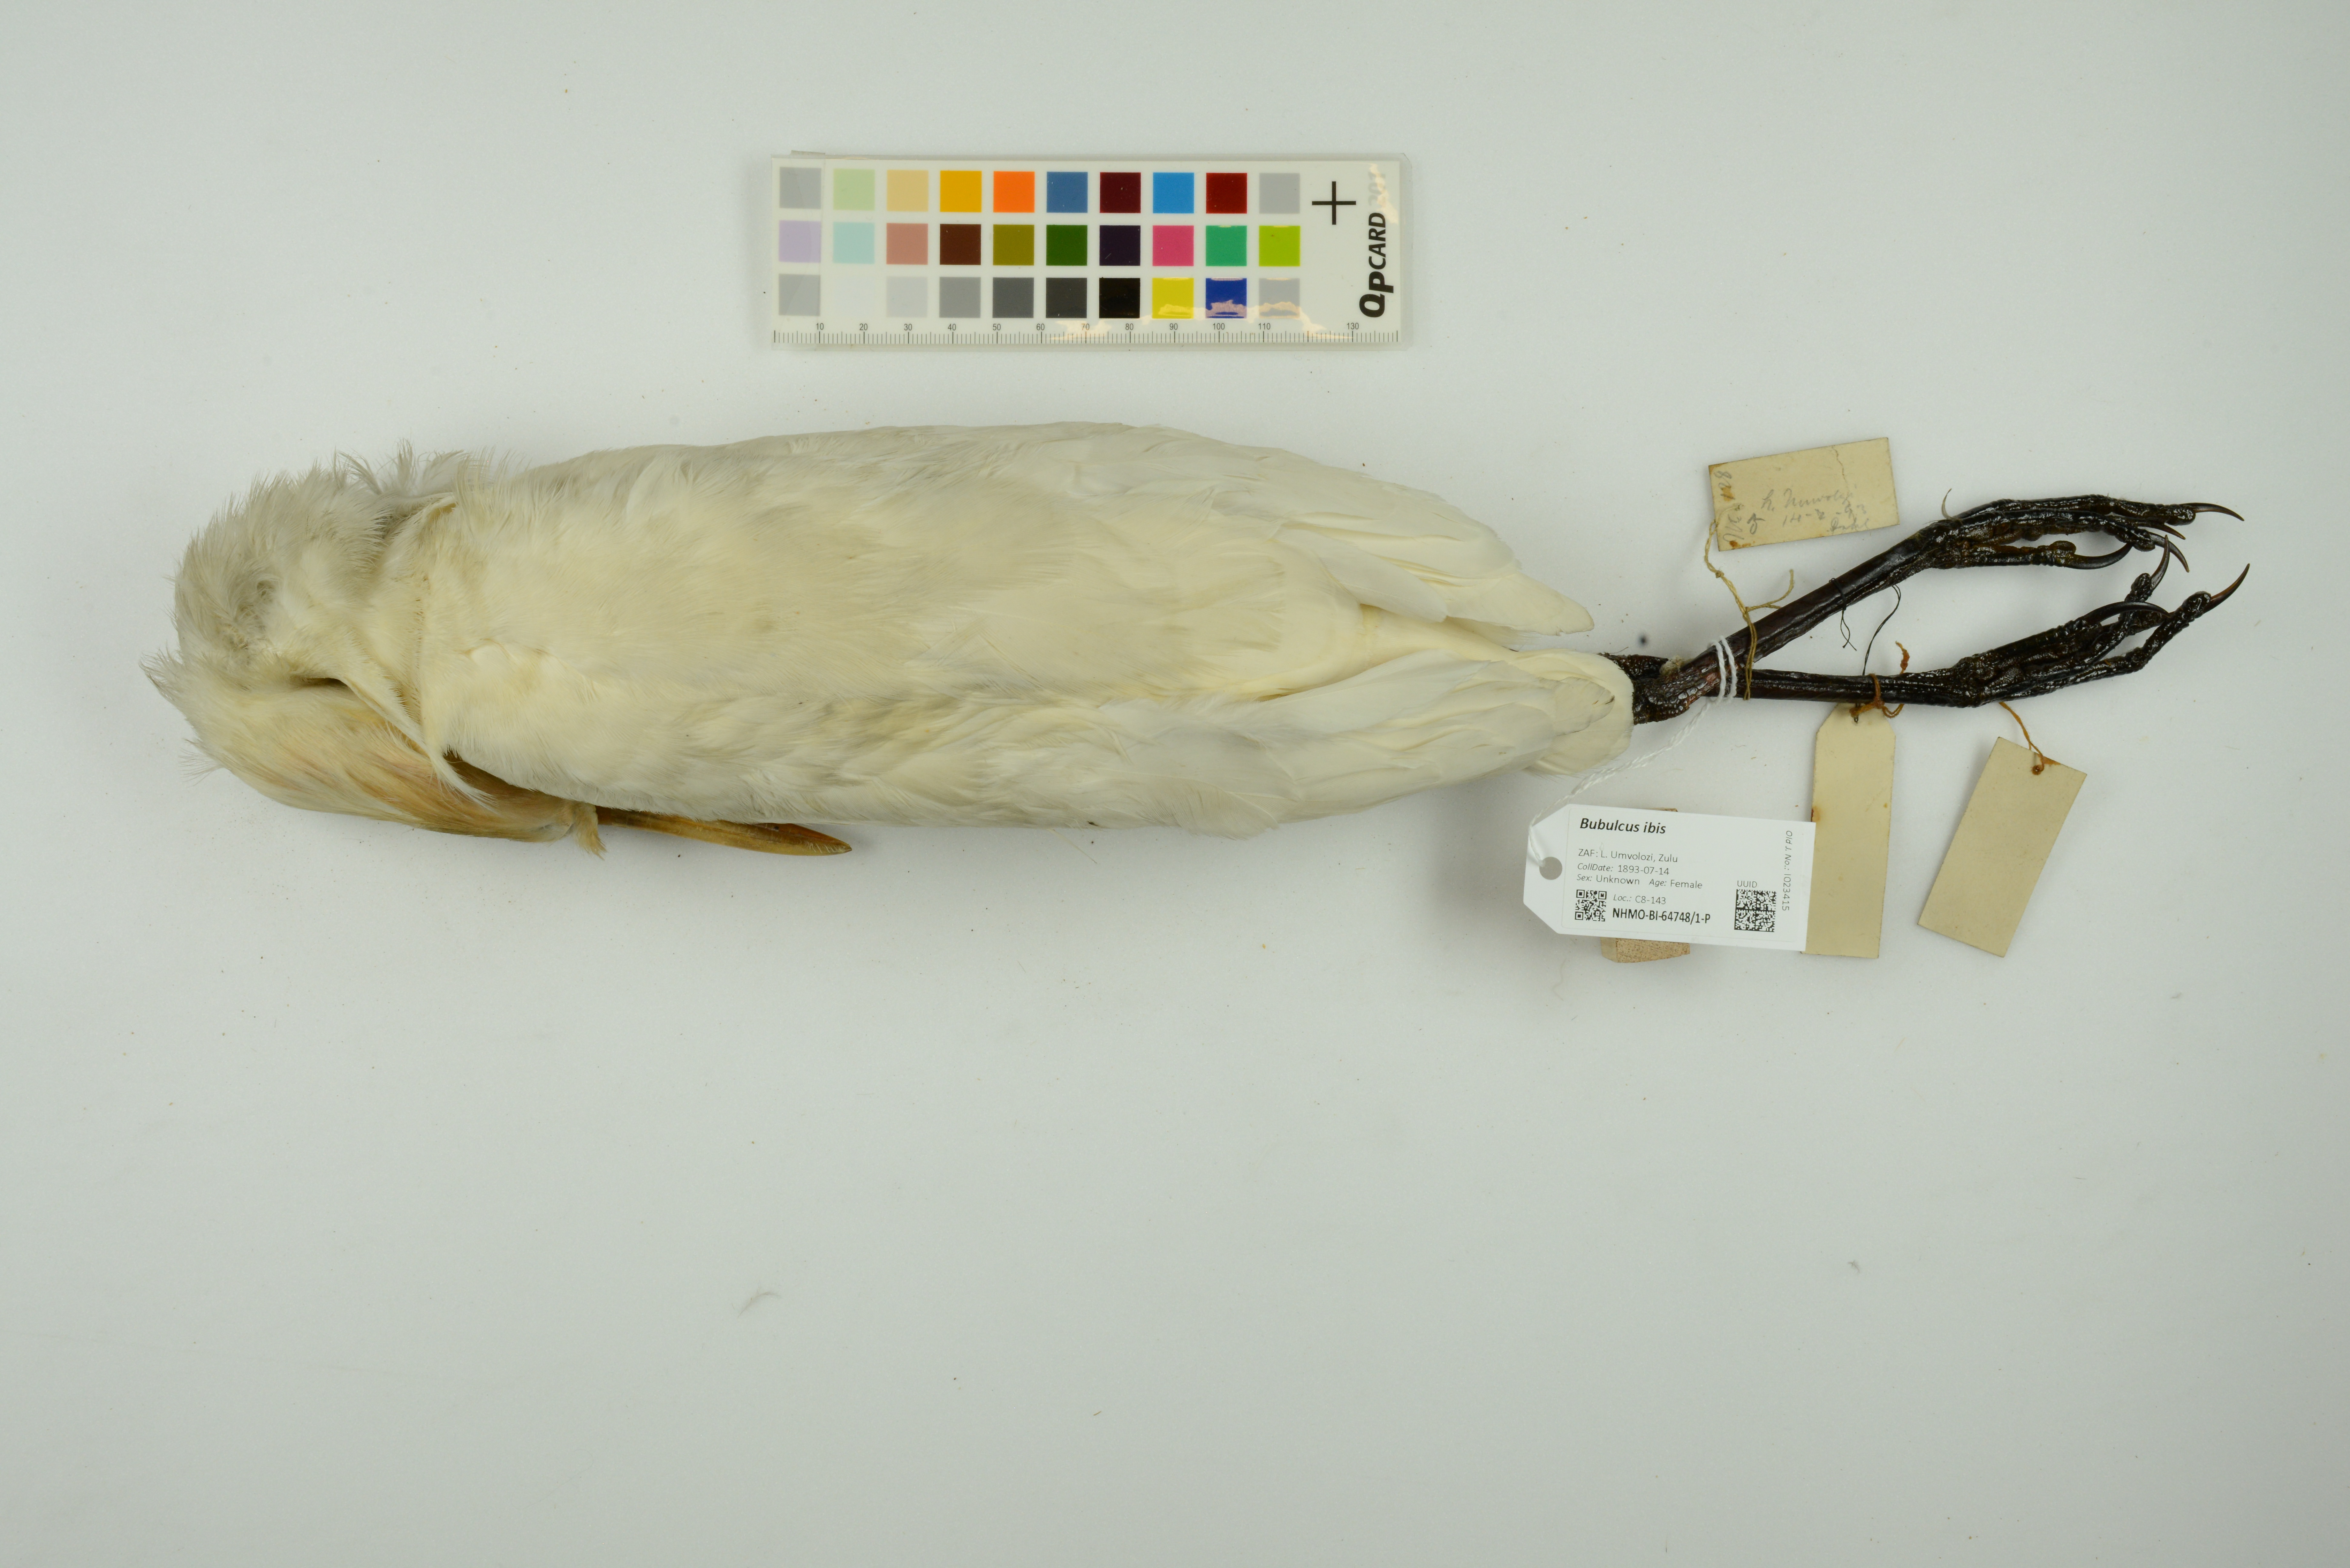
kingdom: Animalia
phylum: Chordata
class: Aves
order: Pelecaniformes
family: Ardeidae
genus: Bubulcus
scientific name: Bubulcus ibis
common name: Cattle egret
